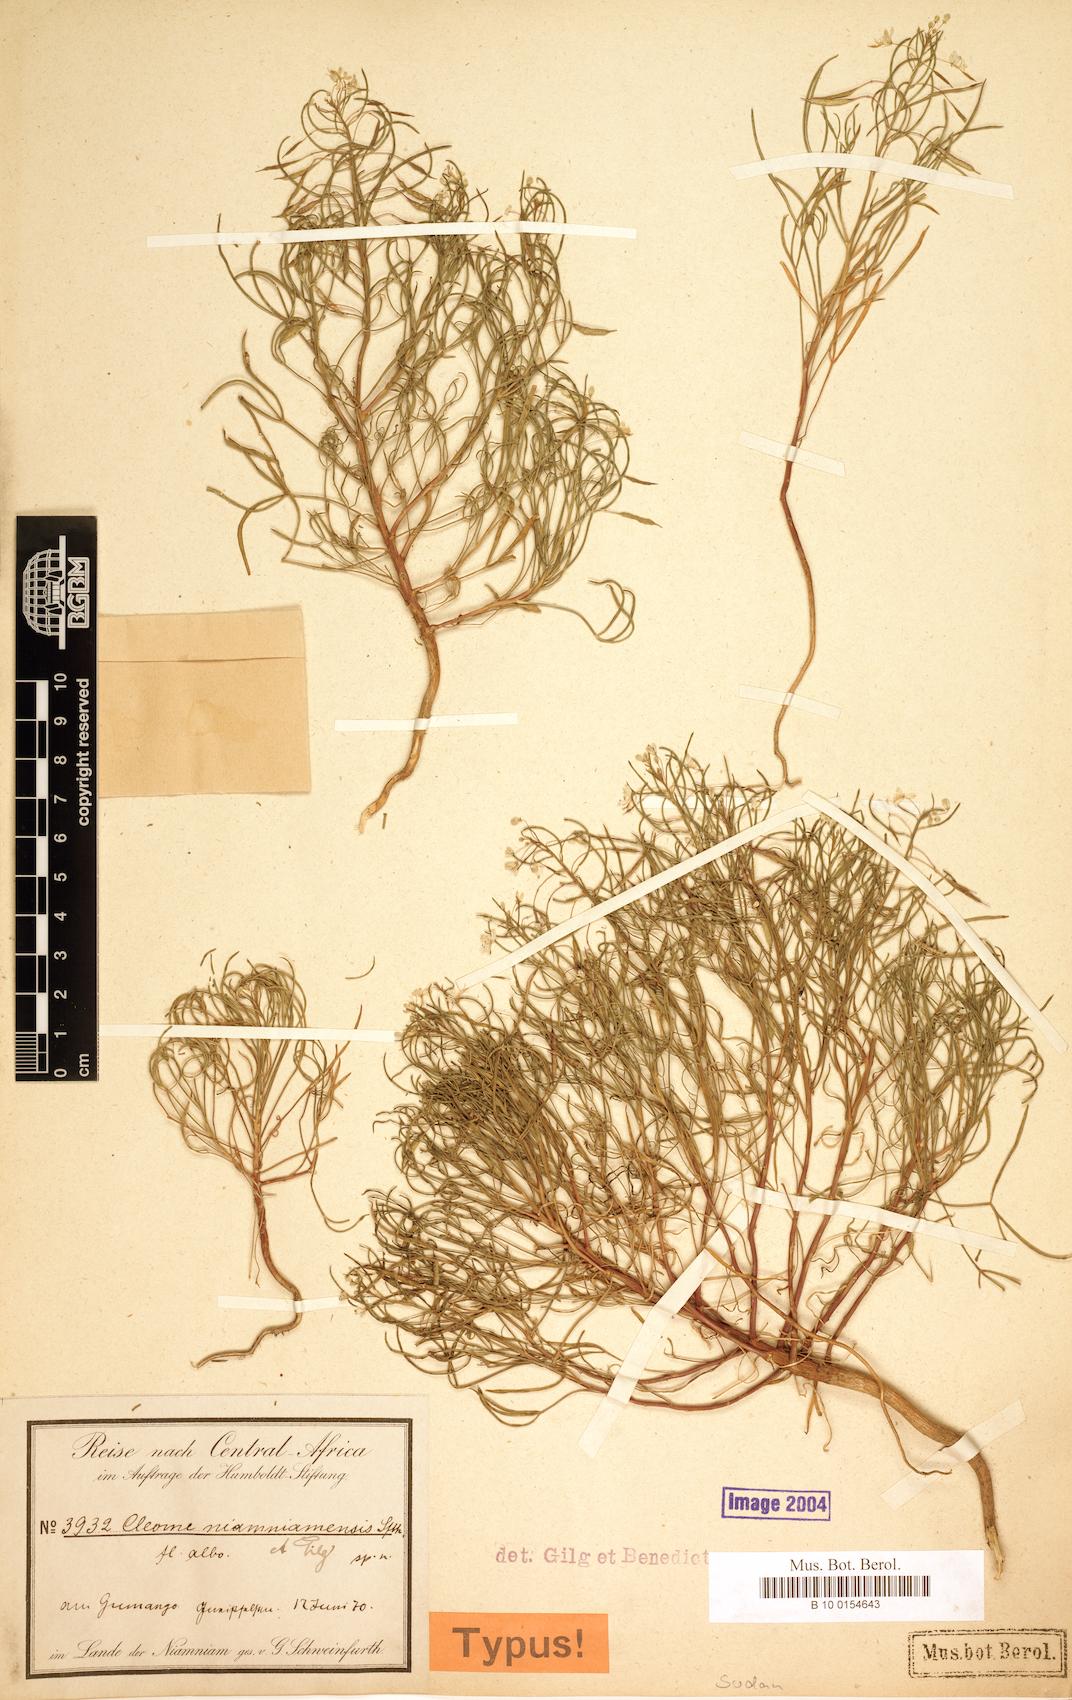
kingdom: Plantae
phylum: Tracheophyta
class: Magnoliopsida
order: Brassicales
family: Cleomaceae
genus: Coalisina
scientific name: Coalisina niamniamensis
